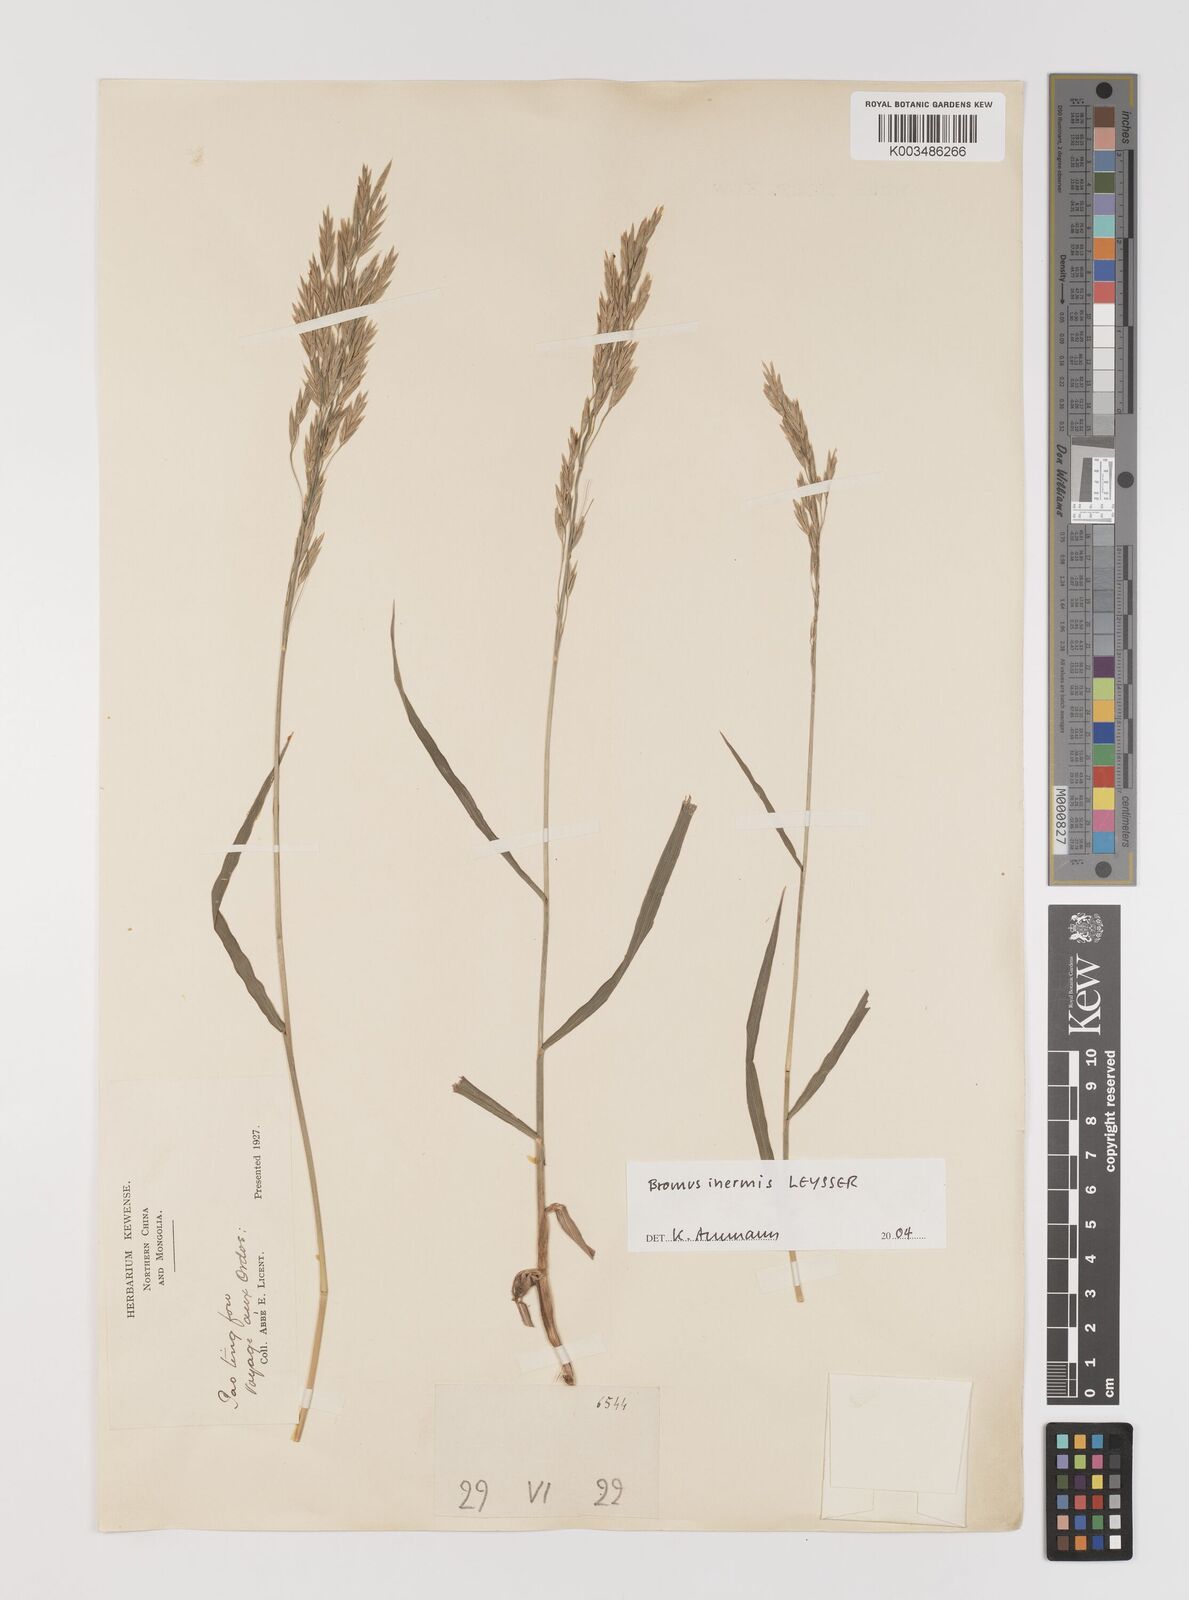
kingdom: Plantae
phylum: Tracheophyta
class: Liliopsida
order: Poales
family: Poaceae
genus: Bromus
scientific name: Bromus inermis
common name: Smooth brome
